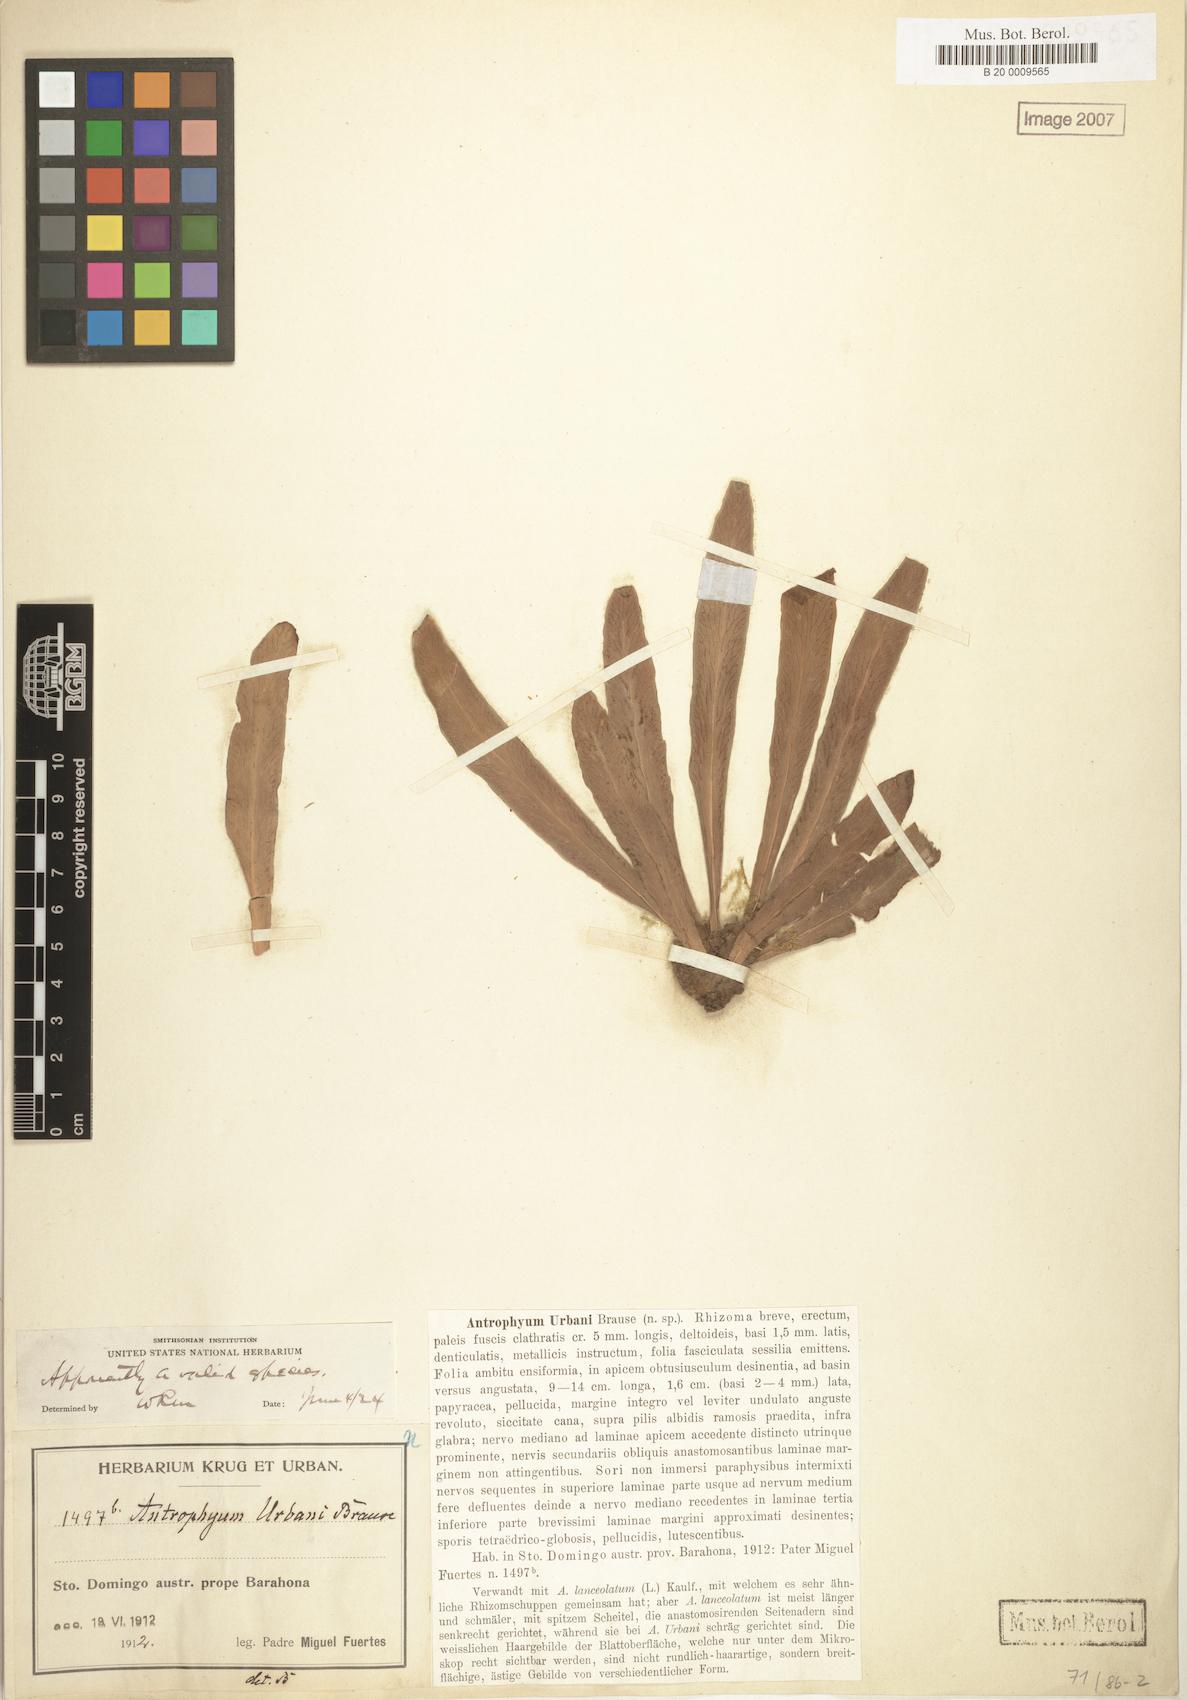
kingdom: Plantae
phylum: Tracheophyta
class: Polypodiopsida
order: Polypodiales
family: Pteridaceae
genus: Polytaenium
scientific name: Polytaenium urbani
